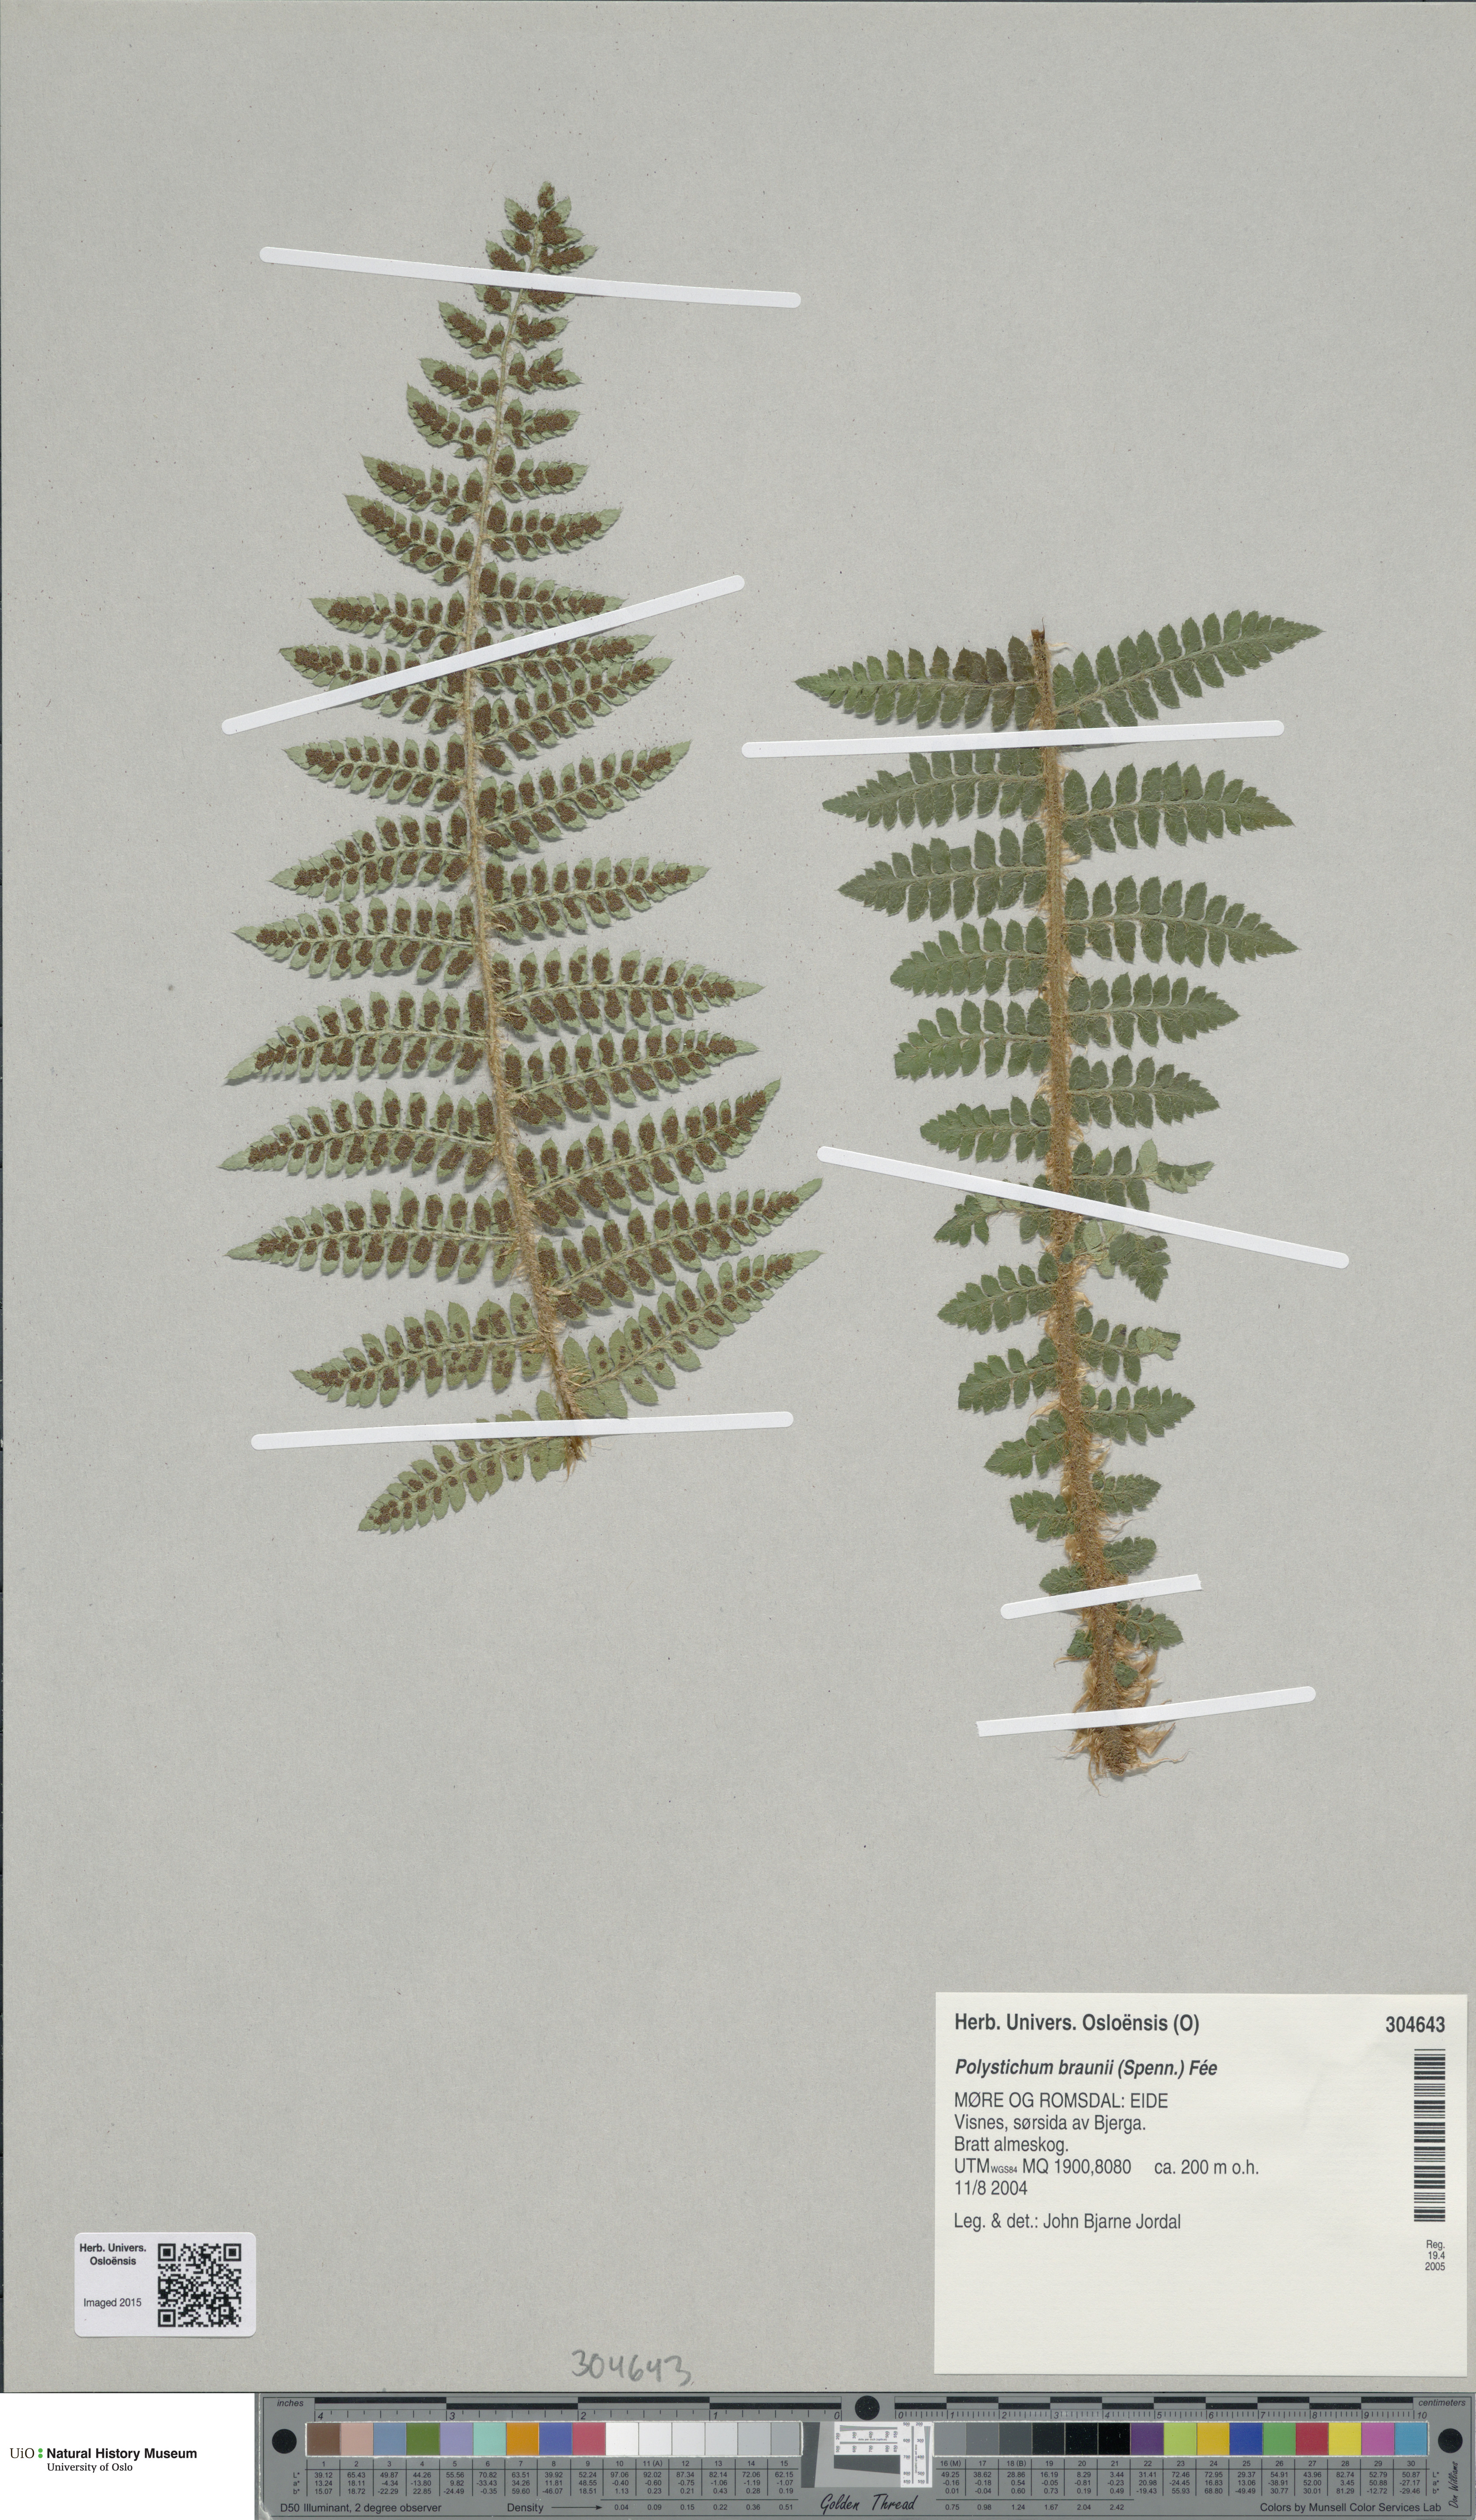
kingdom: Plantae
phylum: Tracheophyta
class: Polypodiopsida
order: Polypodiales
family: Dryopteridaceae
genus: Polystichum
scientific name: Polystichum braunii
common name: Braun's holly fern
